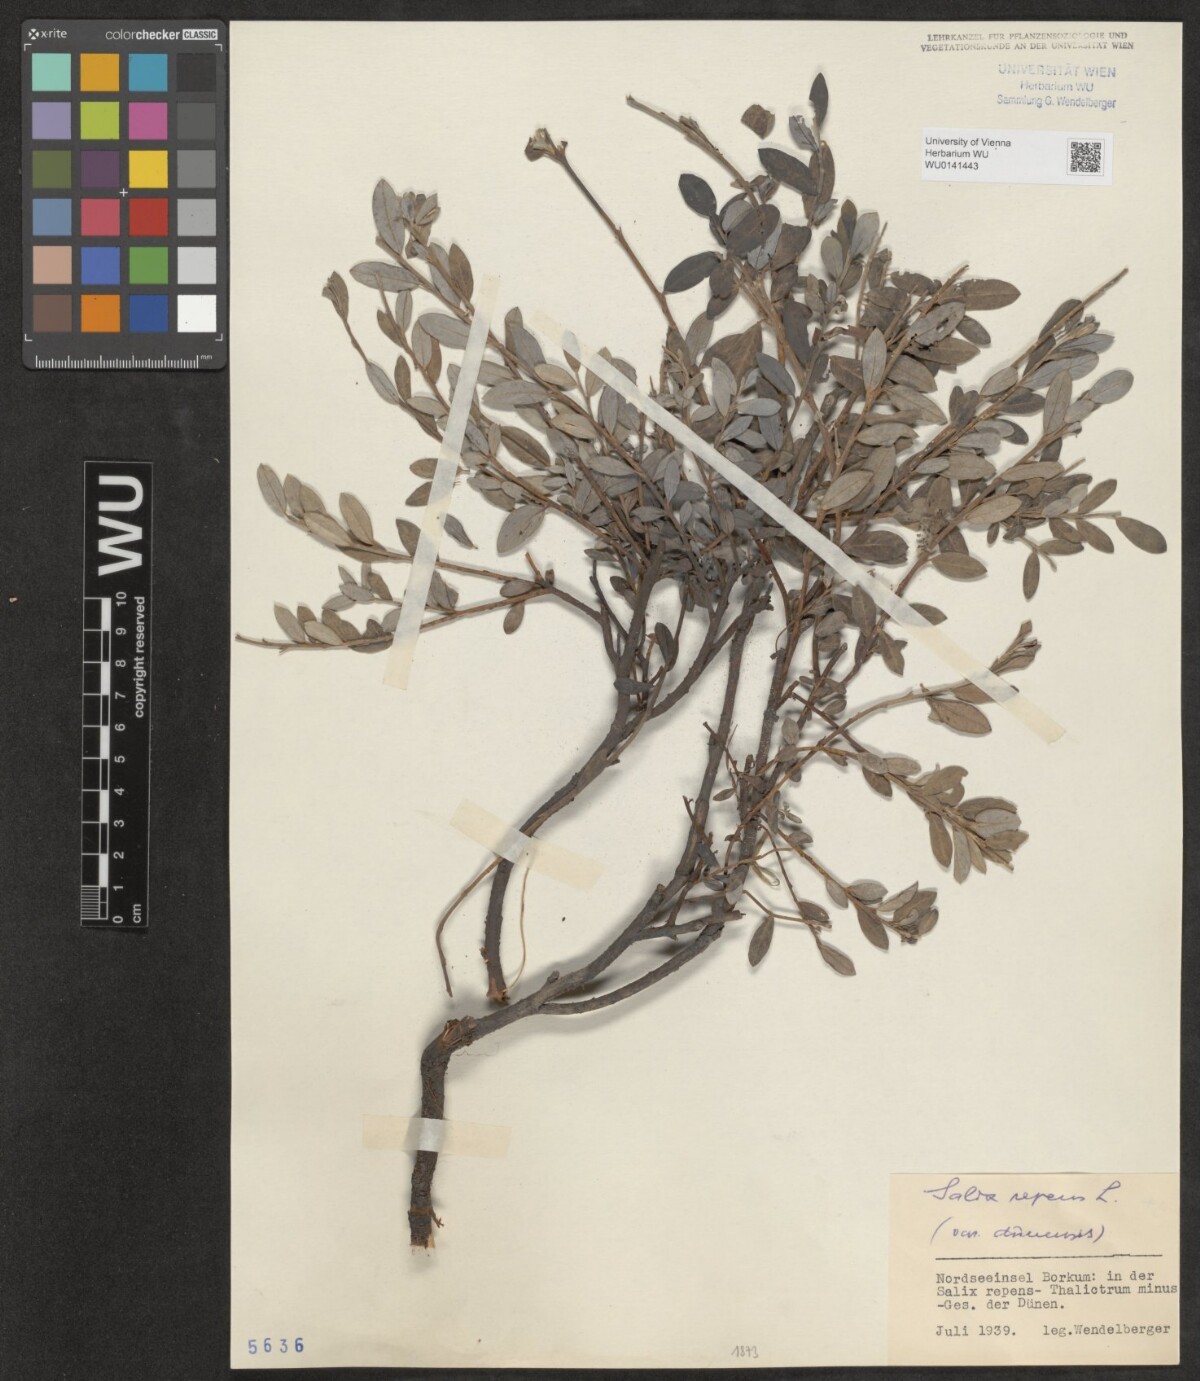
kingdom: Plantae
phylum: Tracheophyta
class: Magnoliopsida
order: Malpighiales
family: Salicaceae
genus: Salix
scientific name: Salix repens
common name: Creeping willow
